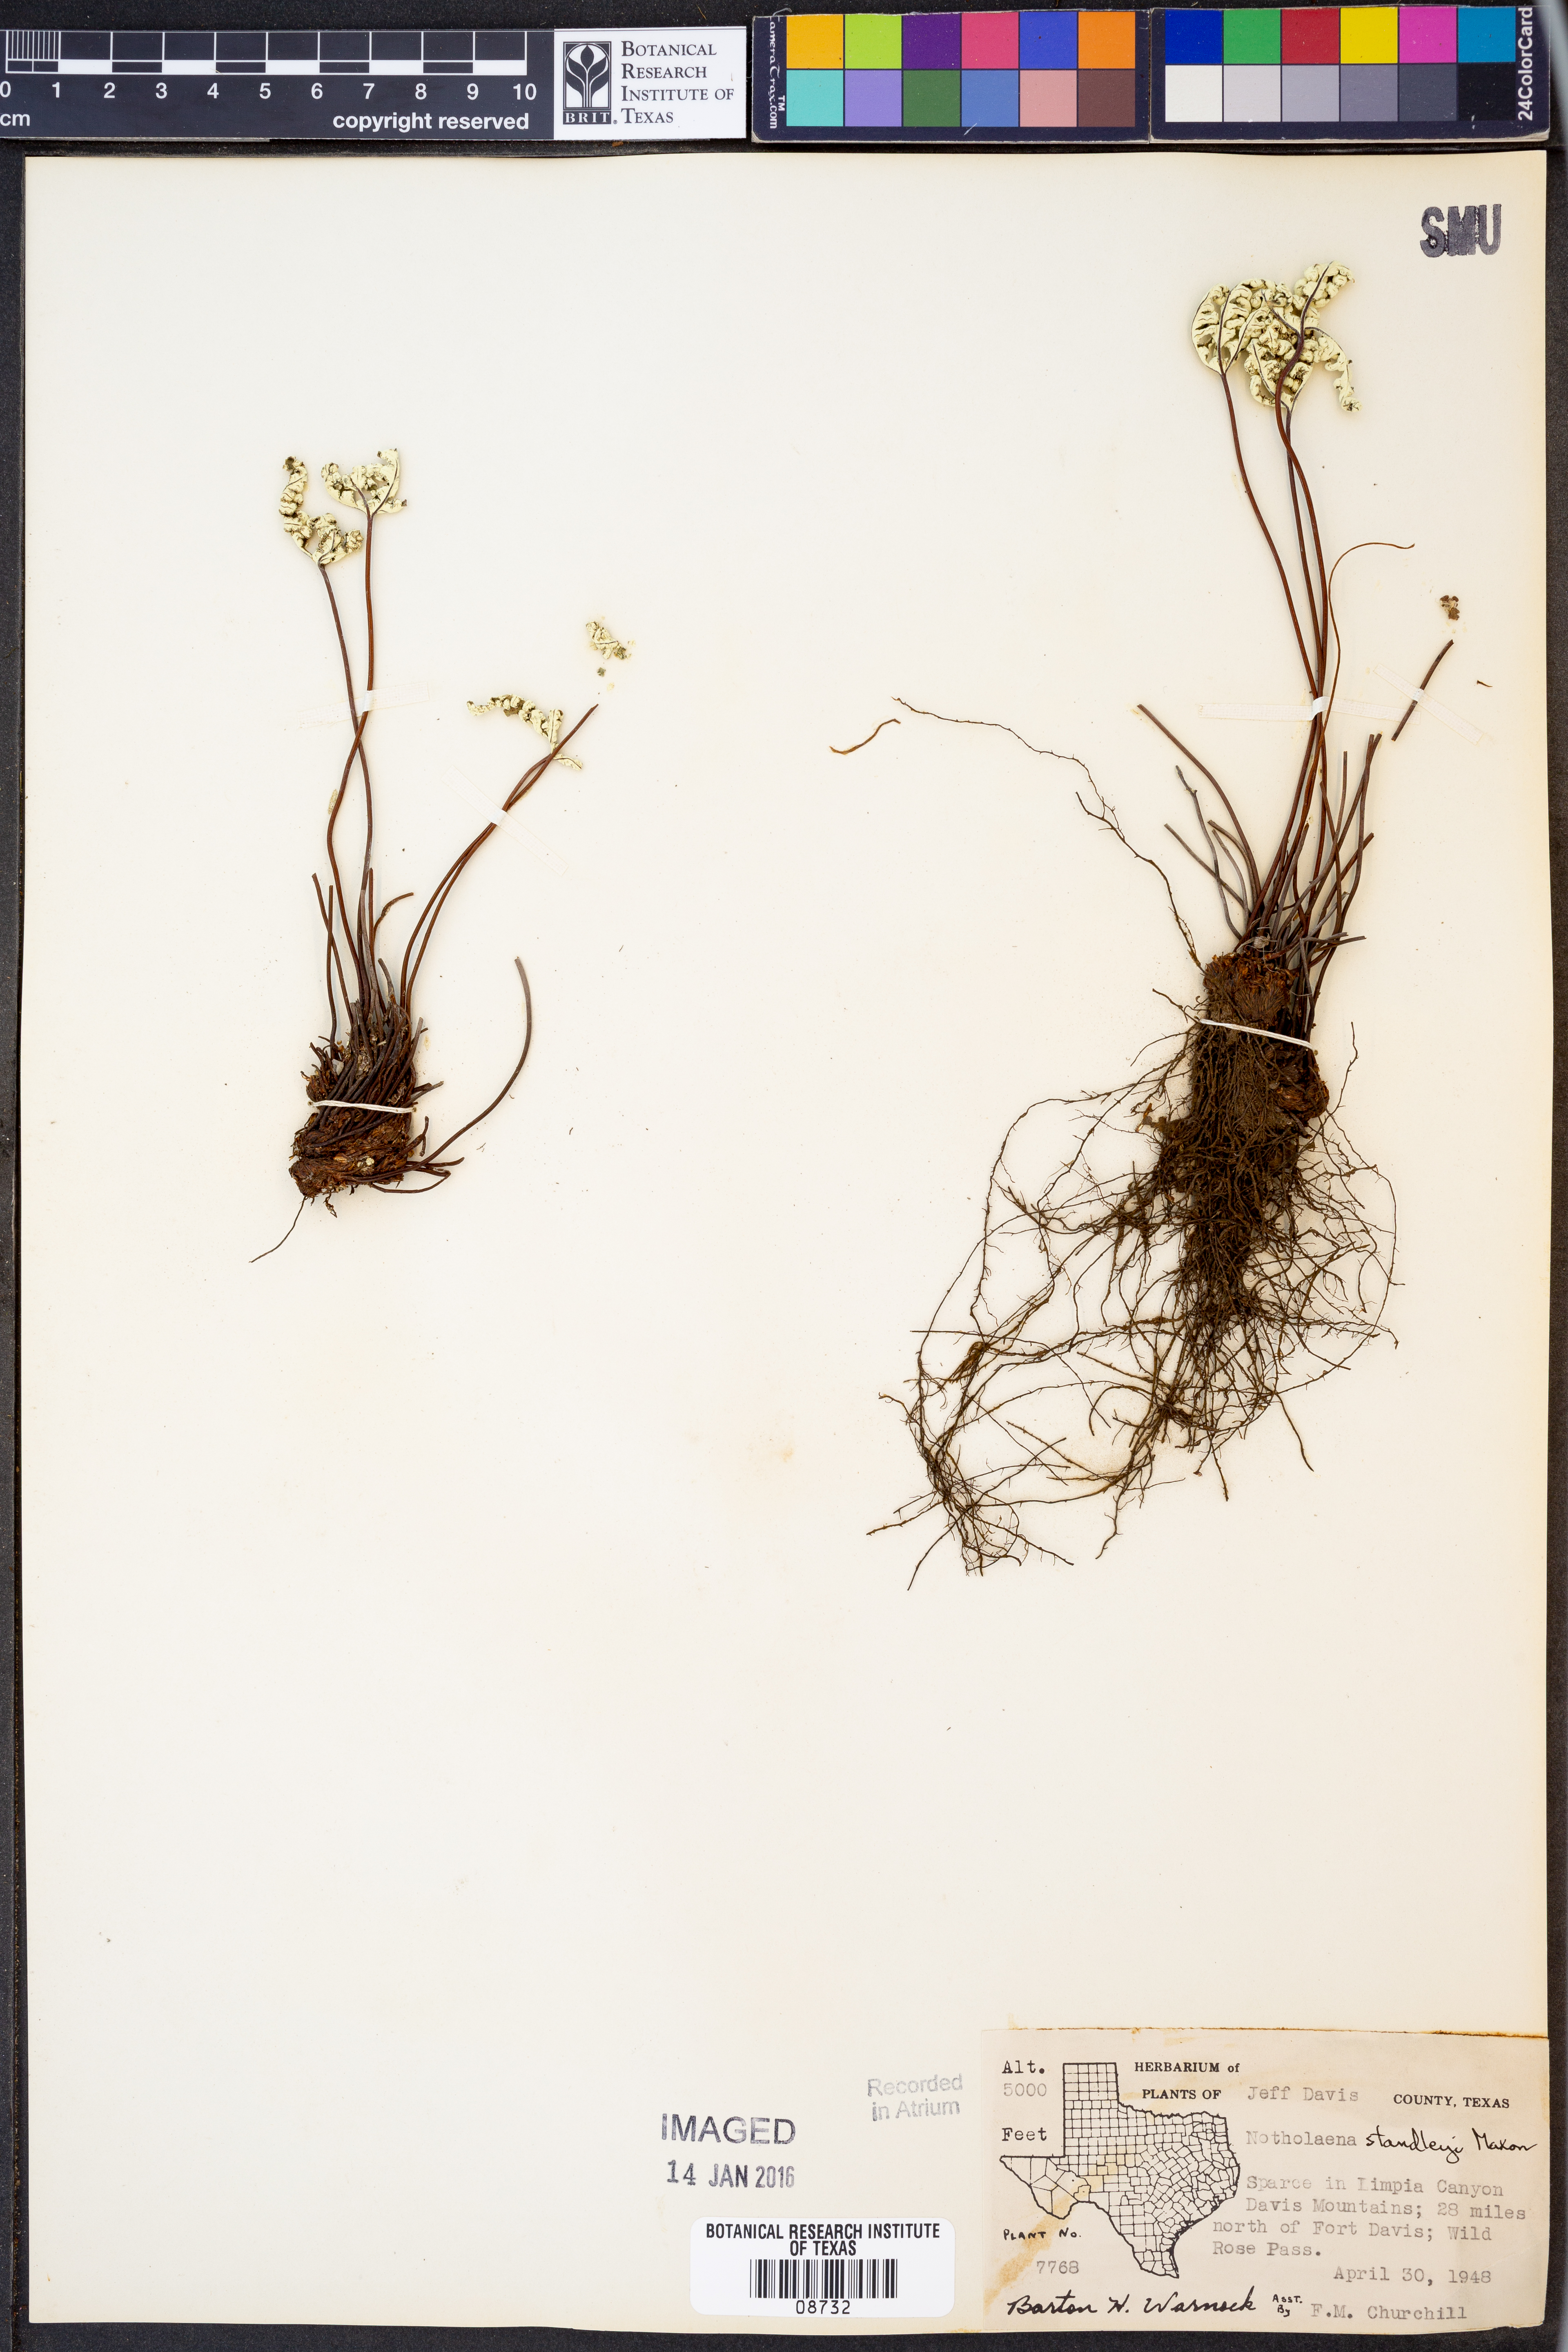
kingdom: Plantae
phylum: Tracheophyta
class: Polypodiopsida
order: Polypodiales
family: Pteridaceae
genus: Notholaena
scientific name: Notholaena standleyi
